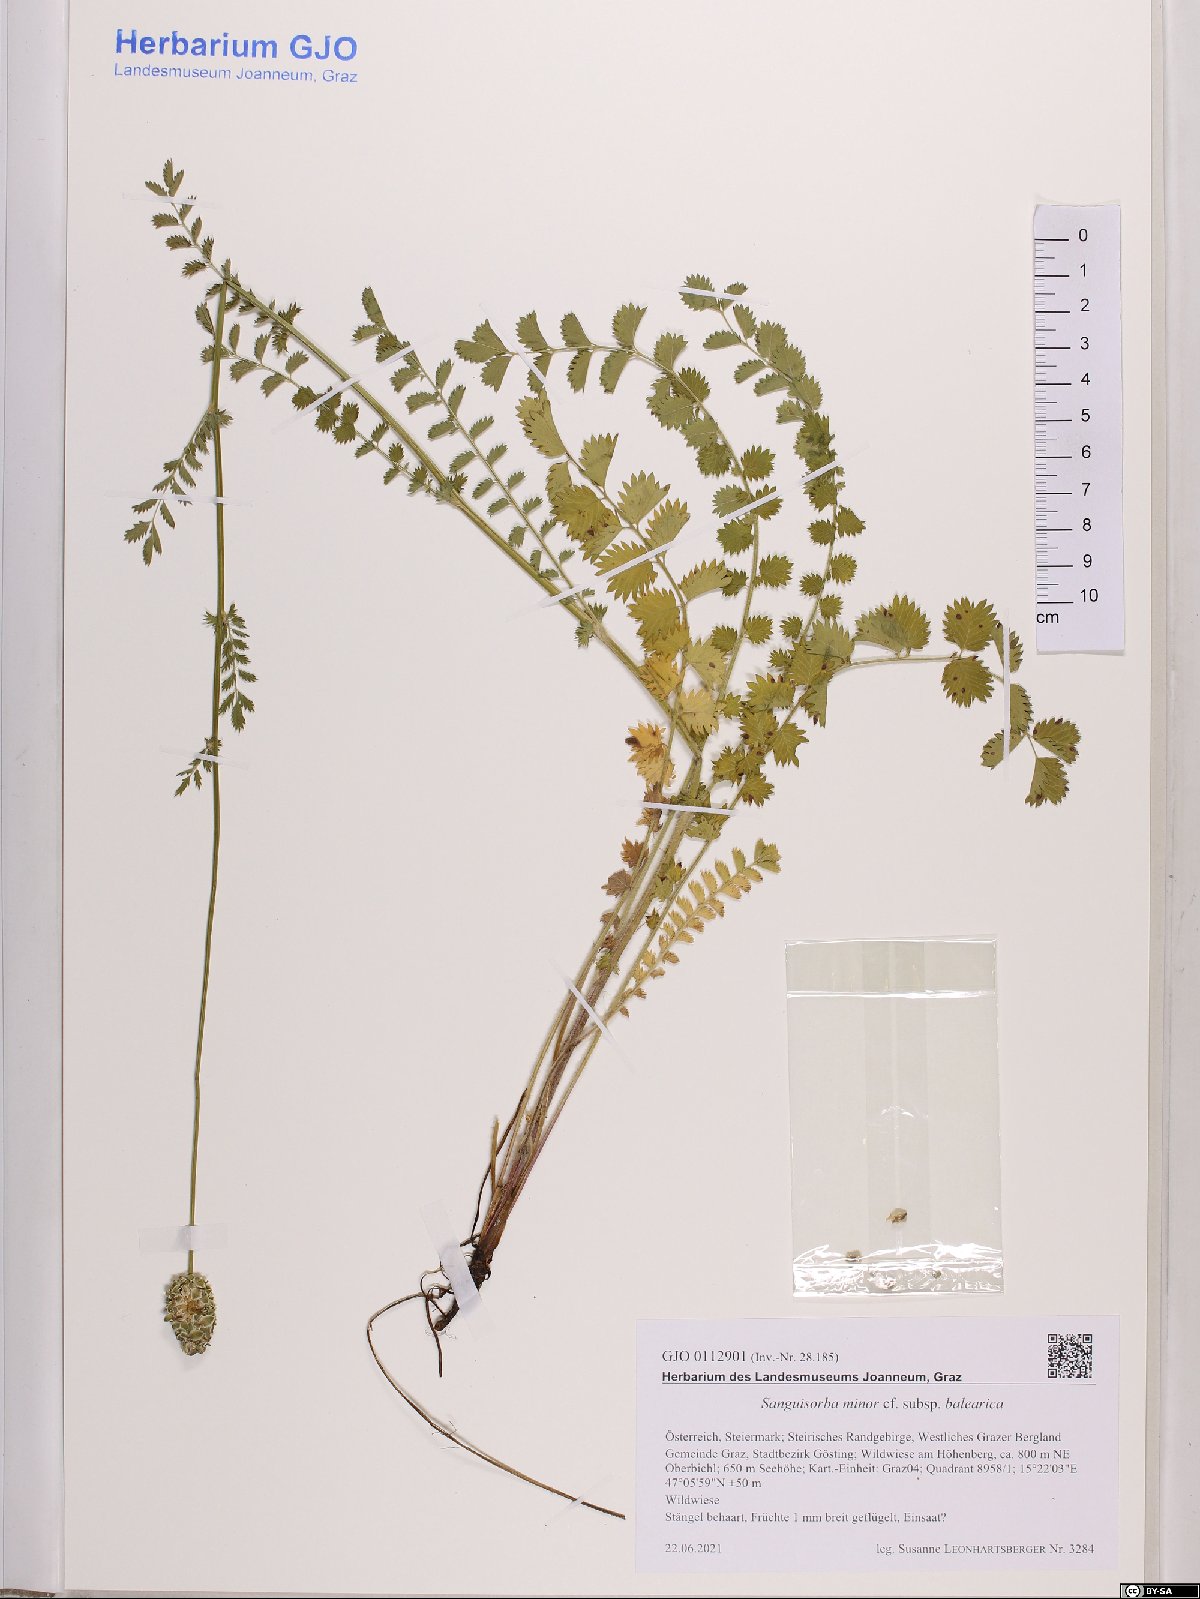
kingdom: Plantae
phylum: Tracheophyta
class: Magnoliopsida
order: Rosales
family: Rosaceae
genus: Poterium
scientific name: Poterium sanguisorba
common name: Salad burnet
